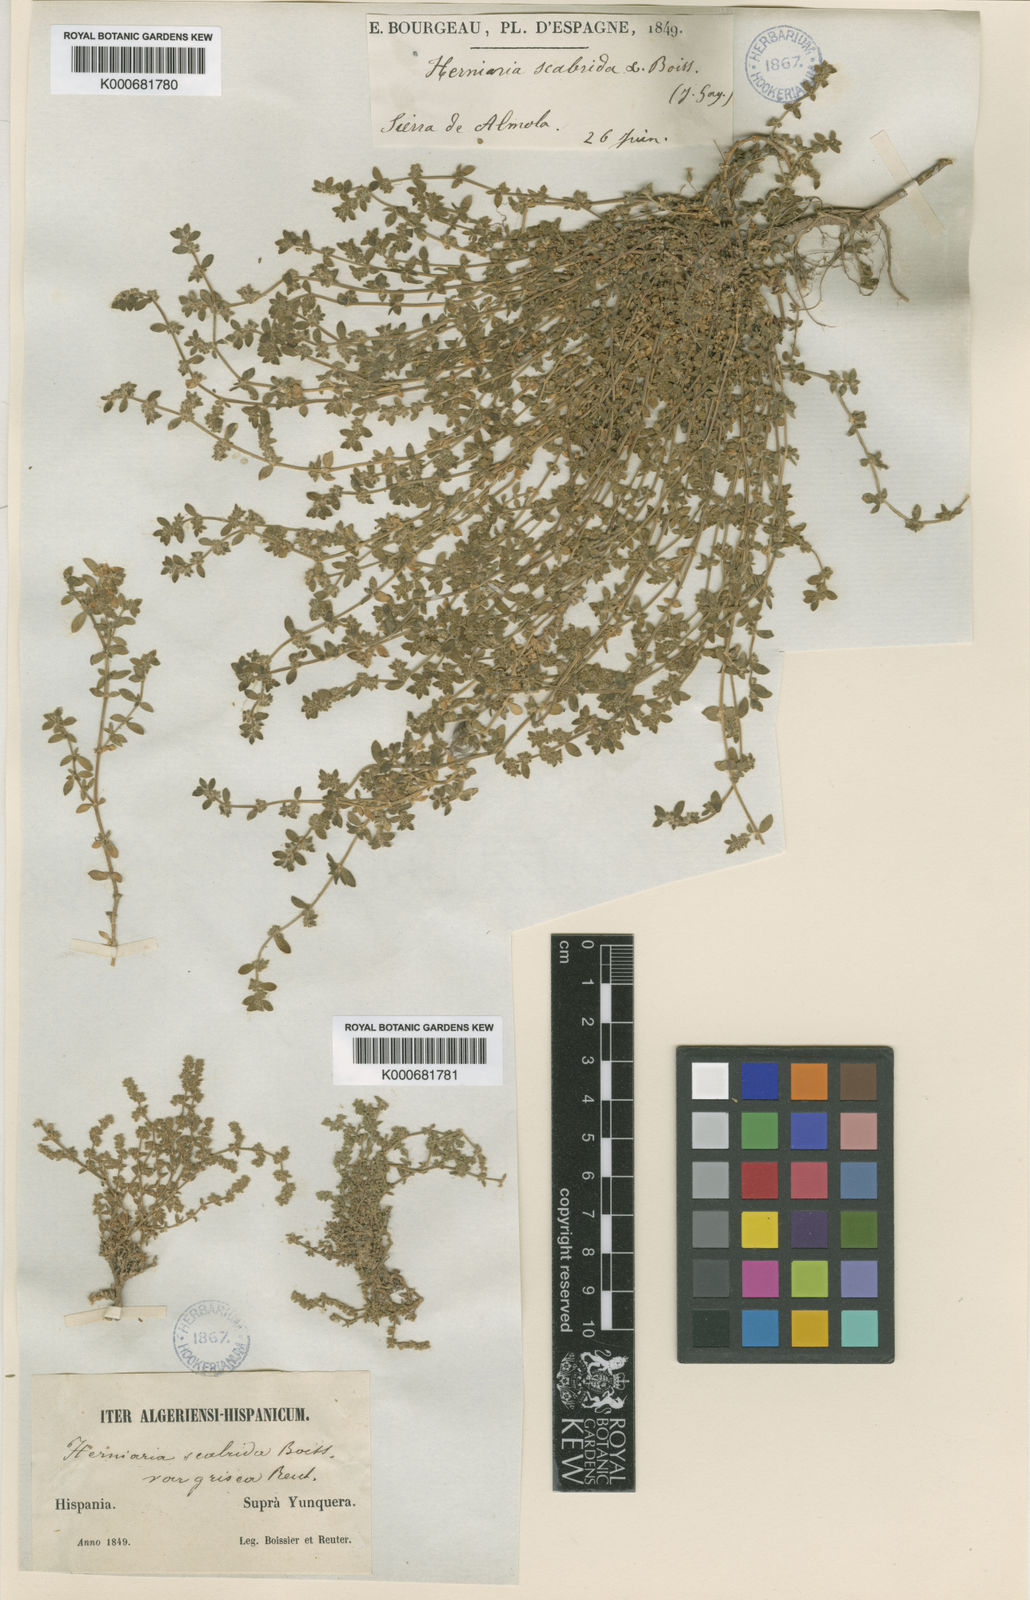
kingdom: Plantae
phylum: Tracheophyta
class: Magnoliopsida
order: Caryophyllales
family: Caryophyllaceae
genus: Herniaria
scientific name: Herniaria scabrida
